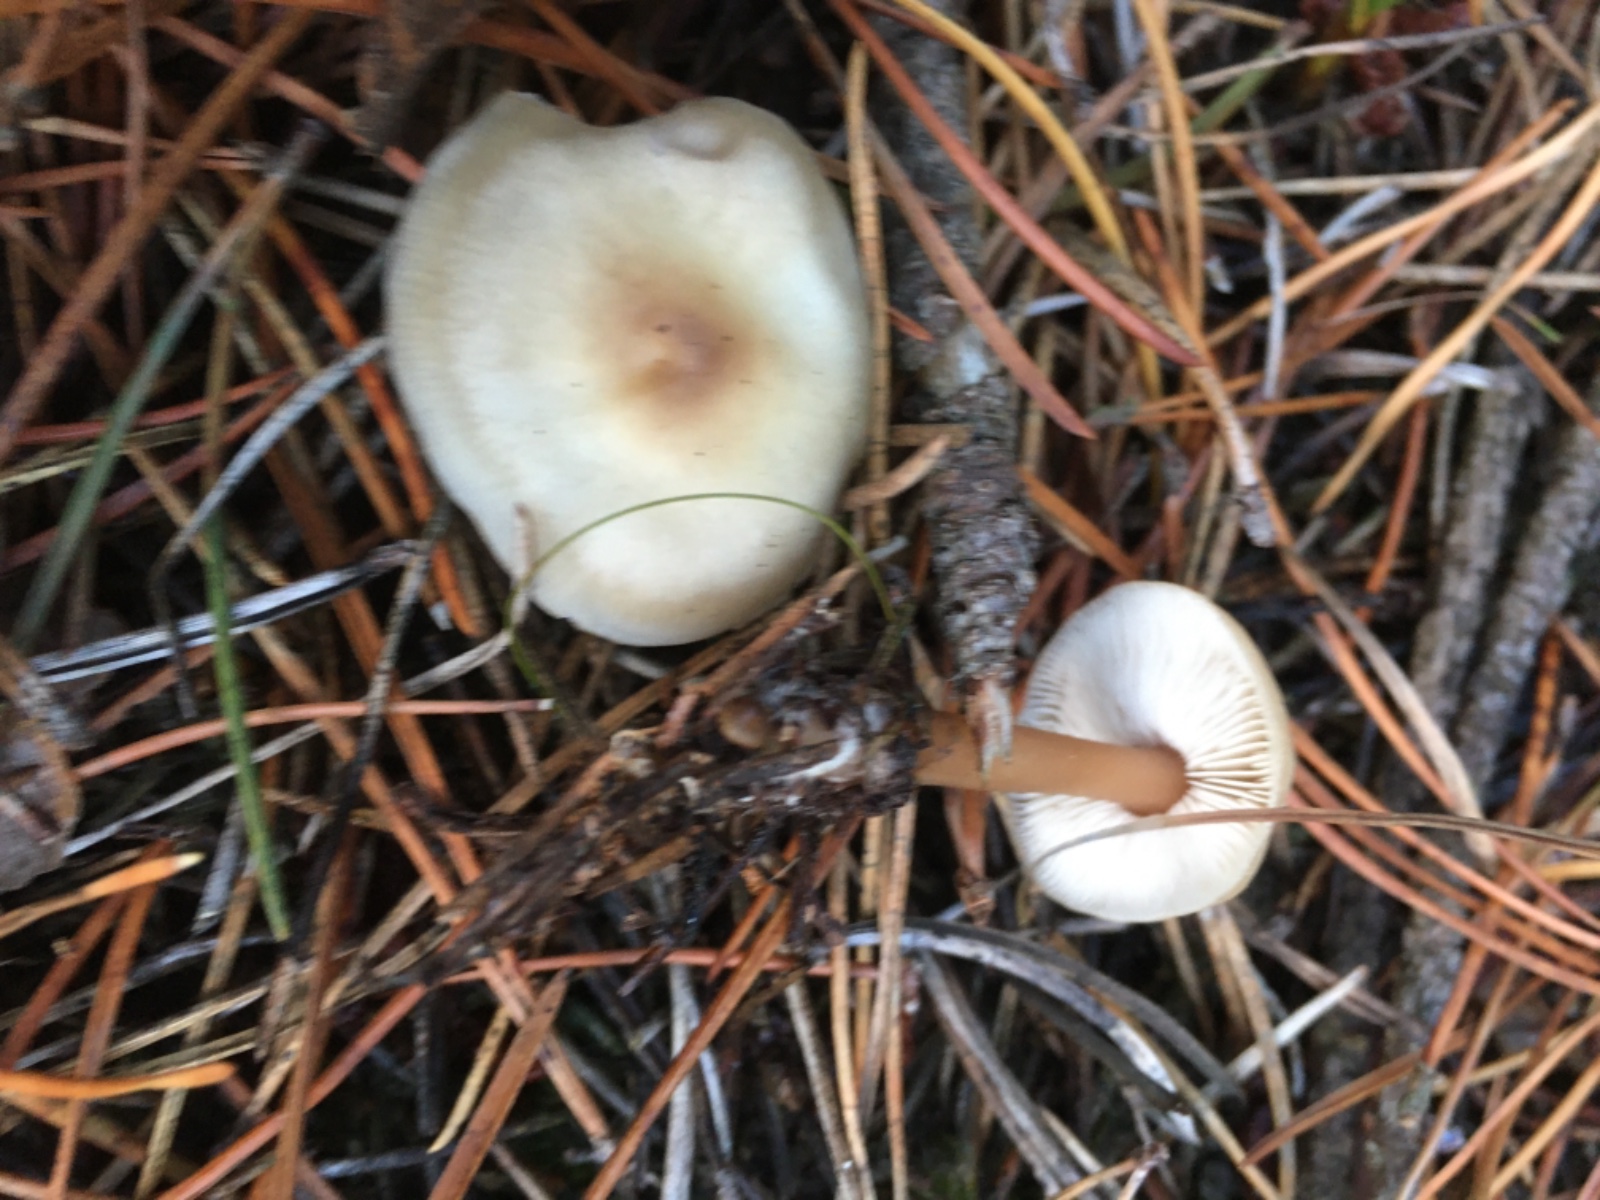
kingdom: Fungi
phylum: Basidiomycota
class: Agaricomycetes
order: Agaricales
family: Omphalotaceae
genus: Rhodocollybia
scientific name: Rhodocollybia asema
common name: horngrå fladhat
